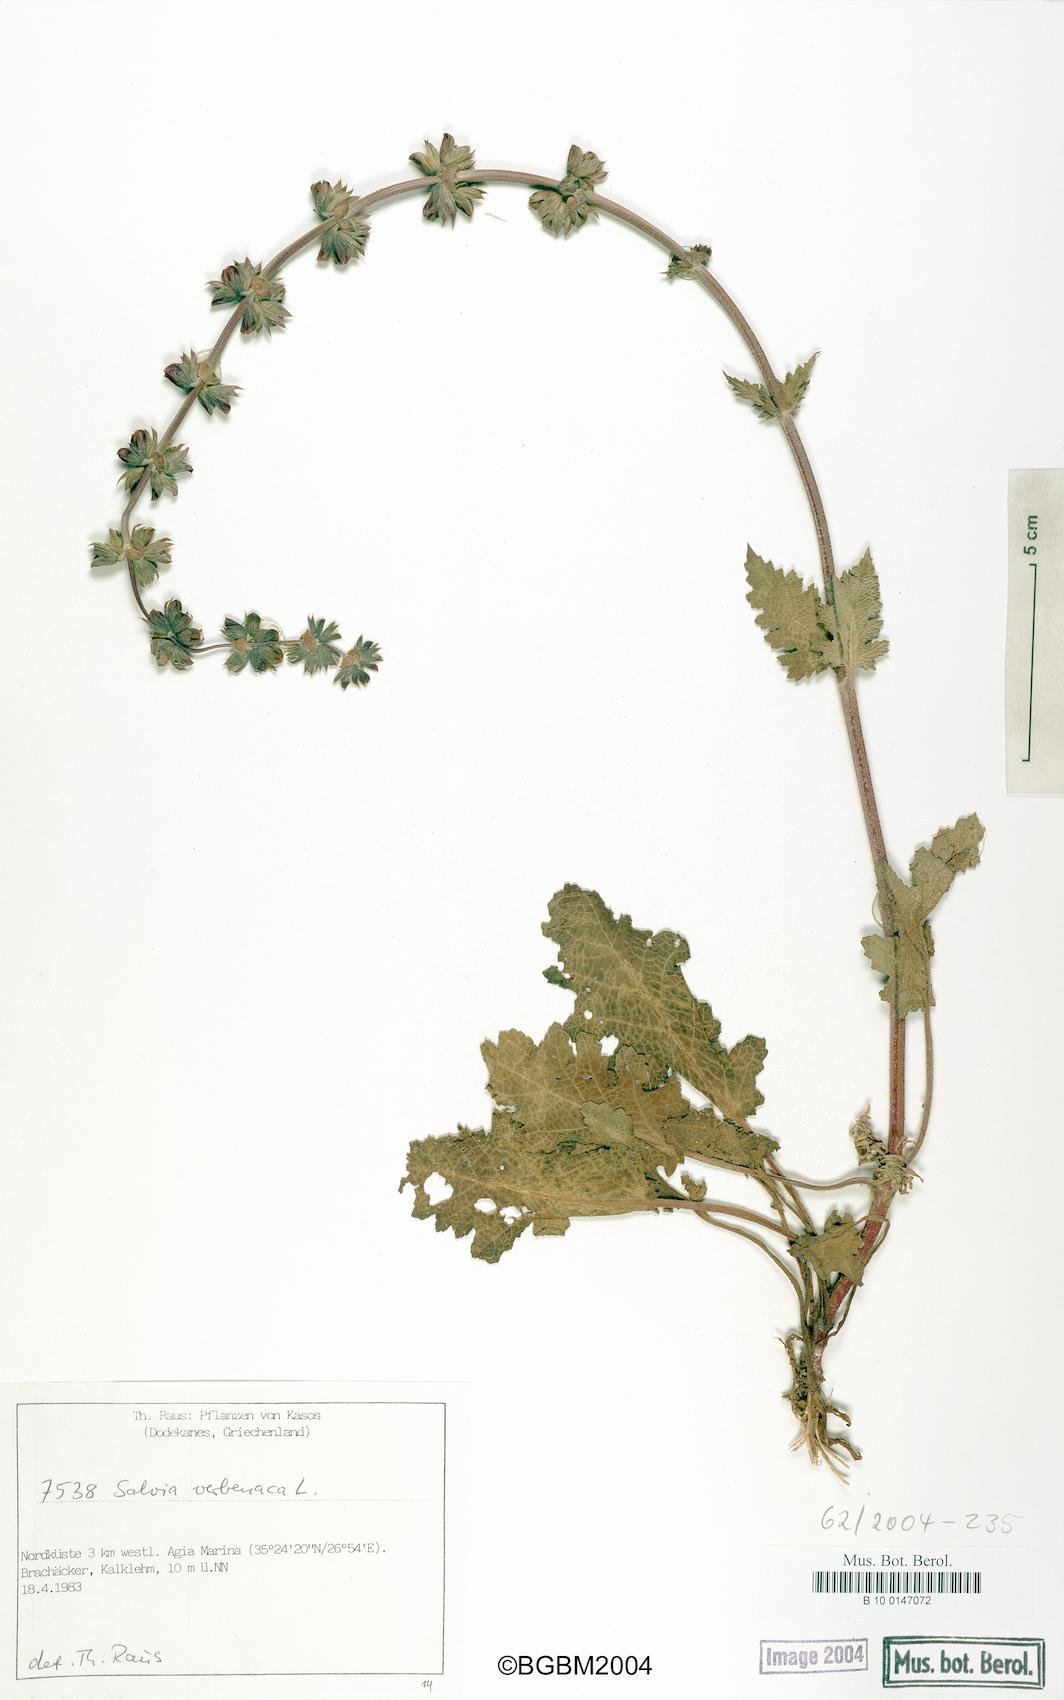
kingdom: Plantae
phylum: Tracheophyta
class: Magnoliopsida
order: Lamiales
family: Lamiaceae
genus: Salvia
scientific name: Salvia verbenaca
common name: Wild clary
